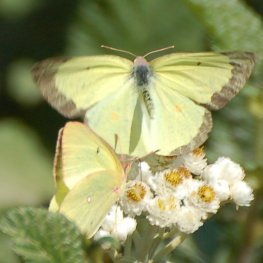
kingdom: Animalia
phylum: Arthropoda
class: Insecta
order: Lepidoptera
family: Pieridae
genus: Colias
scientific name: Colias interior
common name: Pink-edged Sulphur
